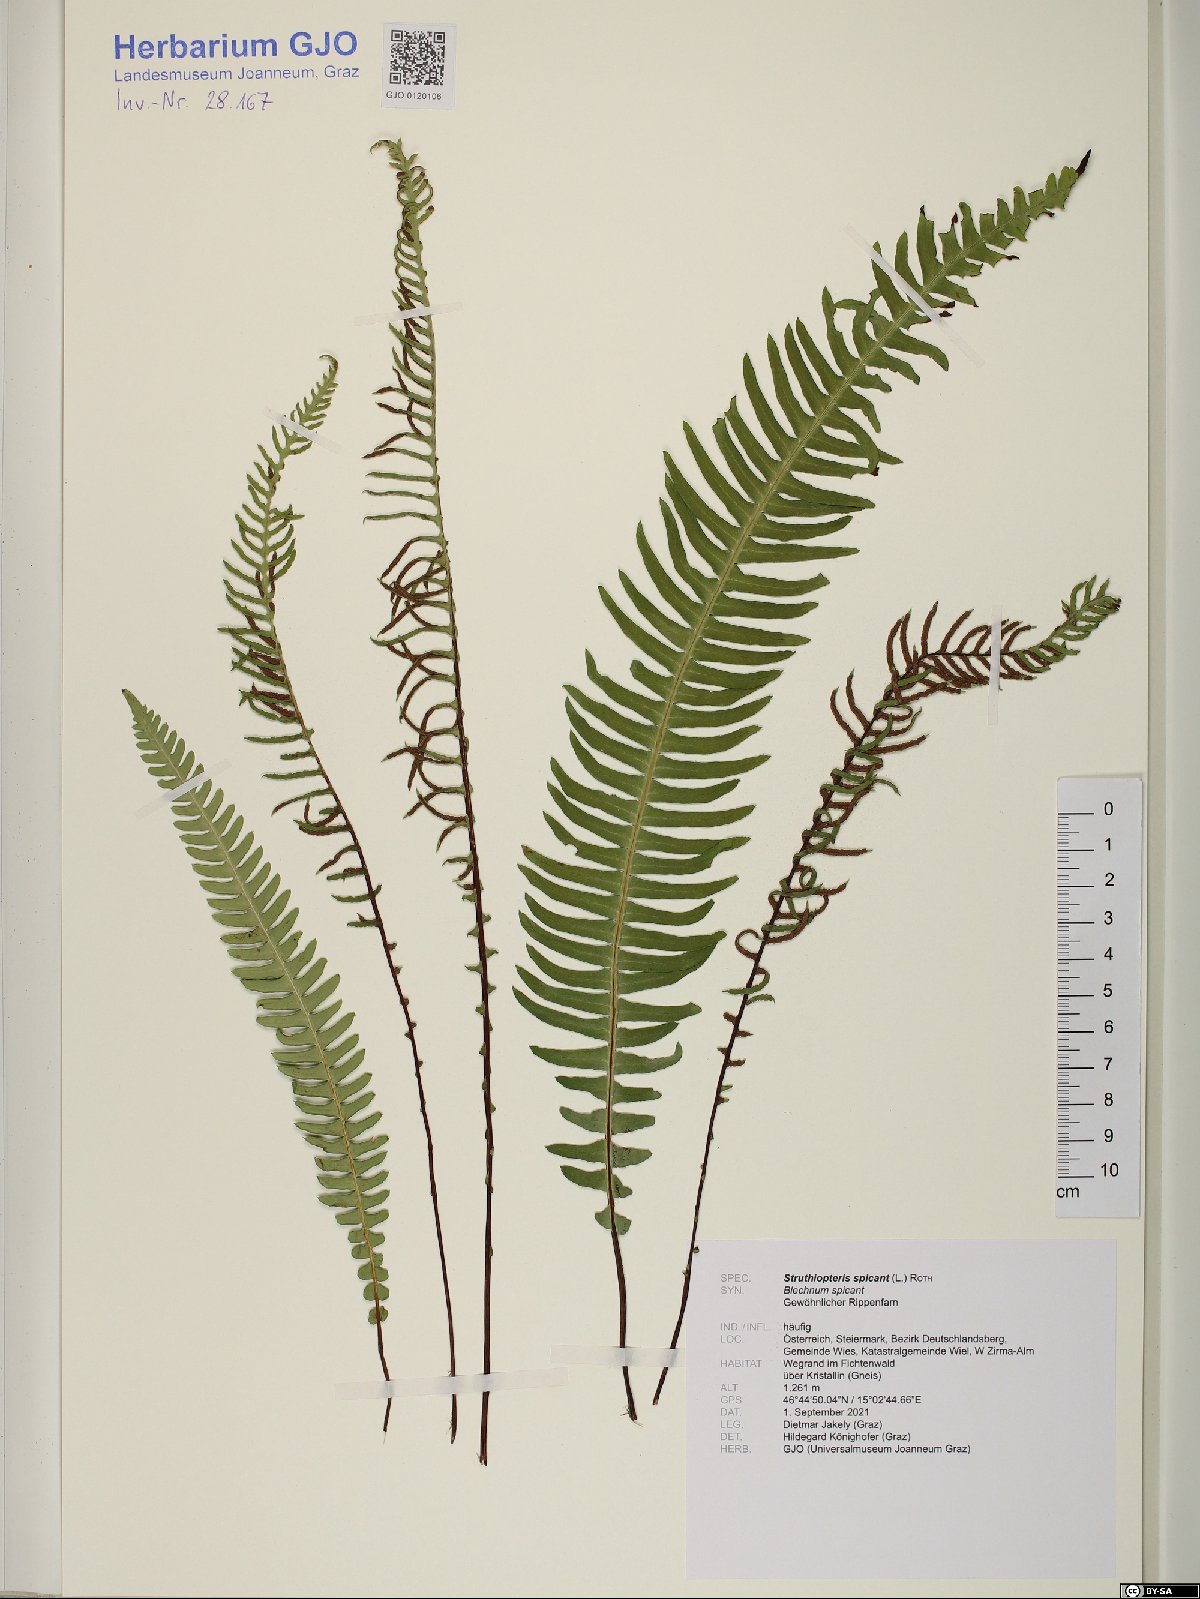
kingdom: Plantae
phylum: Tracheophyta
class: Polypodiopsida
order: Polypodiales
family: Blechnaceae
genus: Struthiopteris
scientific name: Struthiopteris spicant
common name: Deer fern
